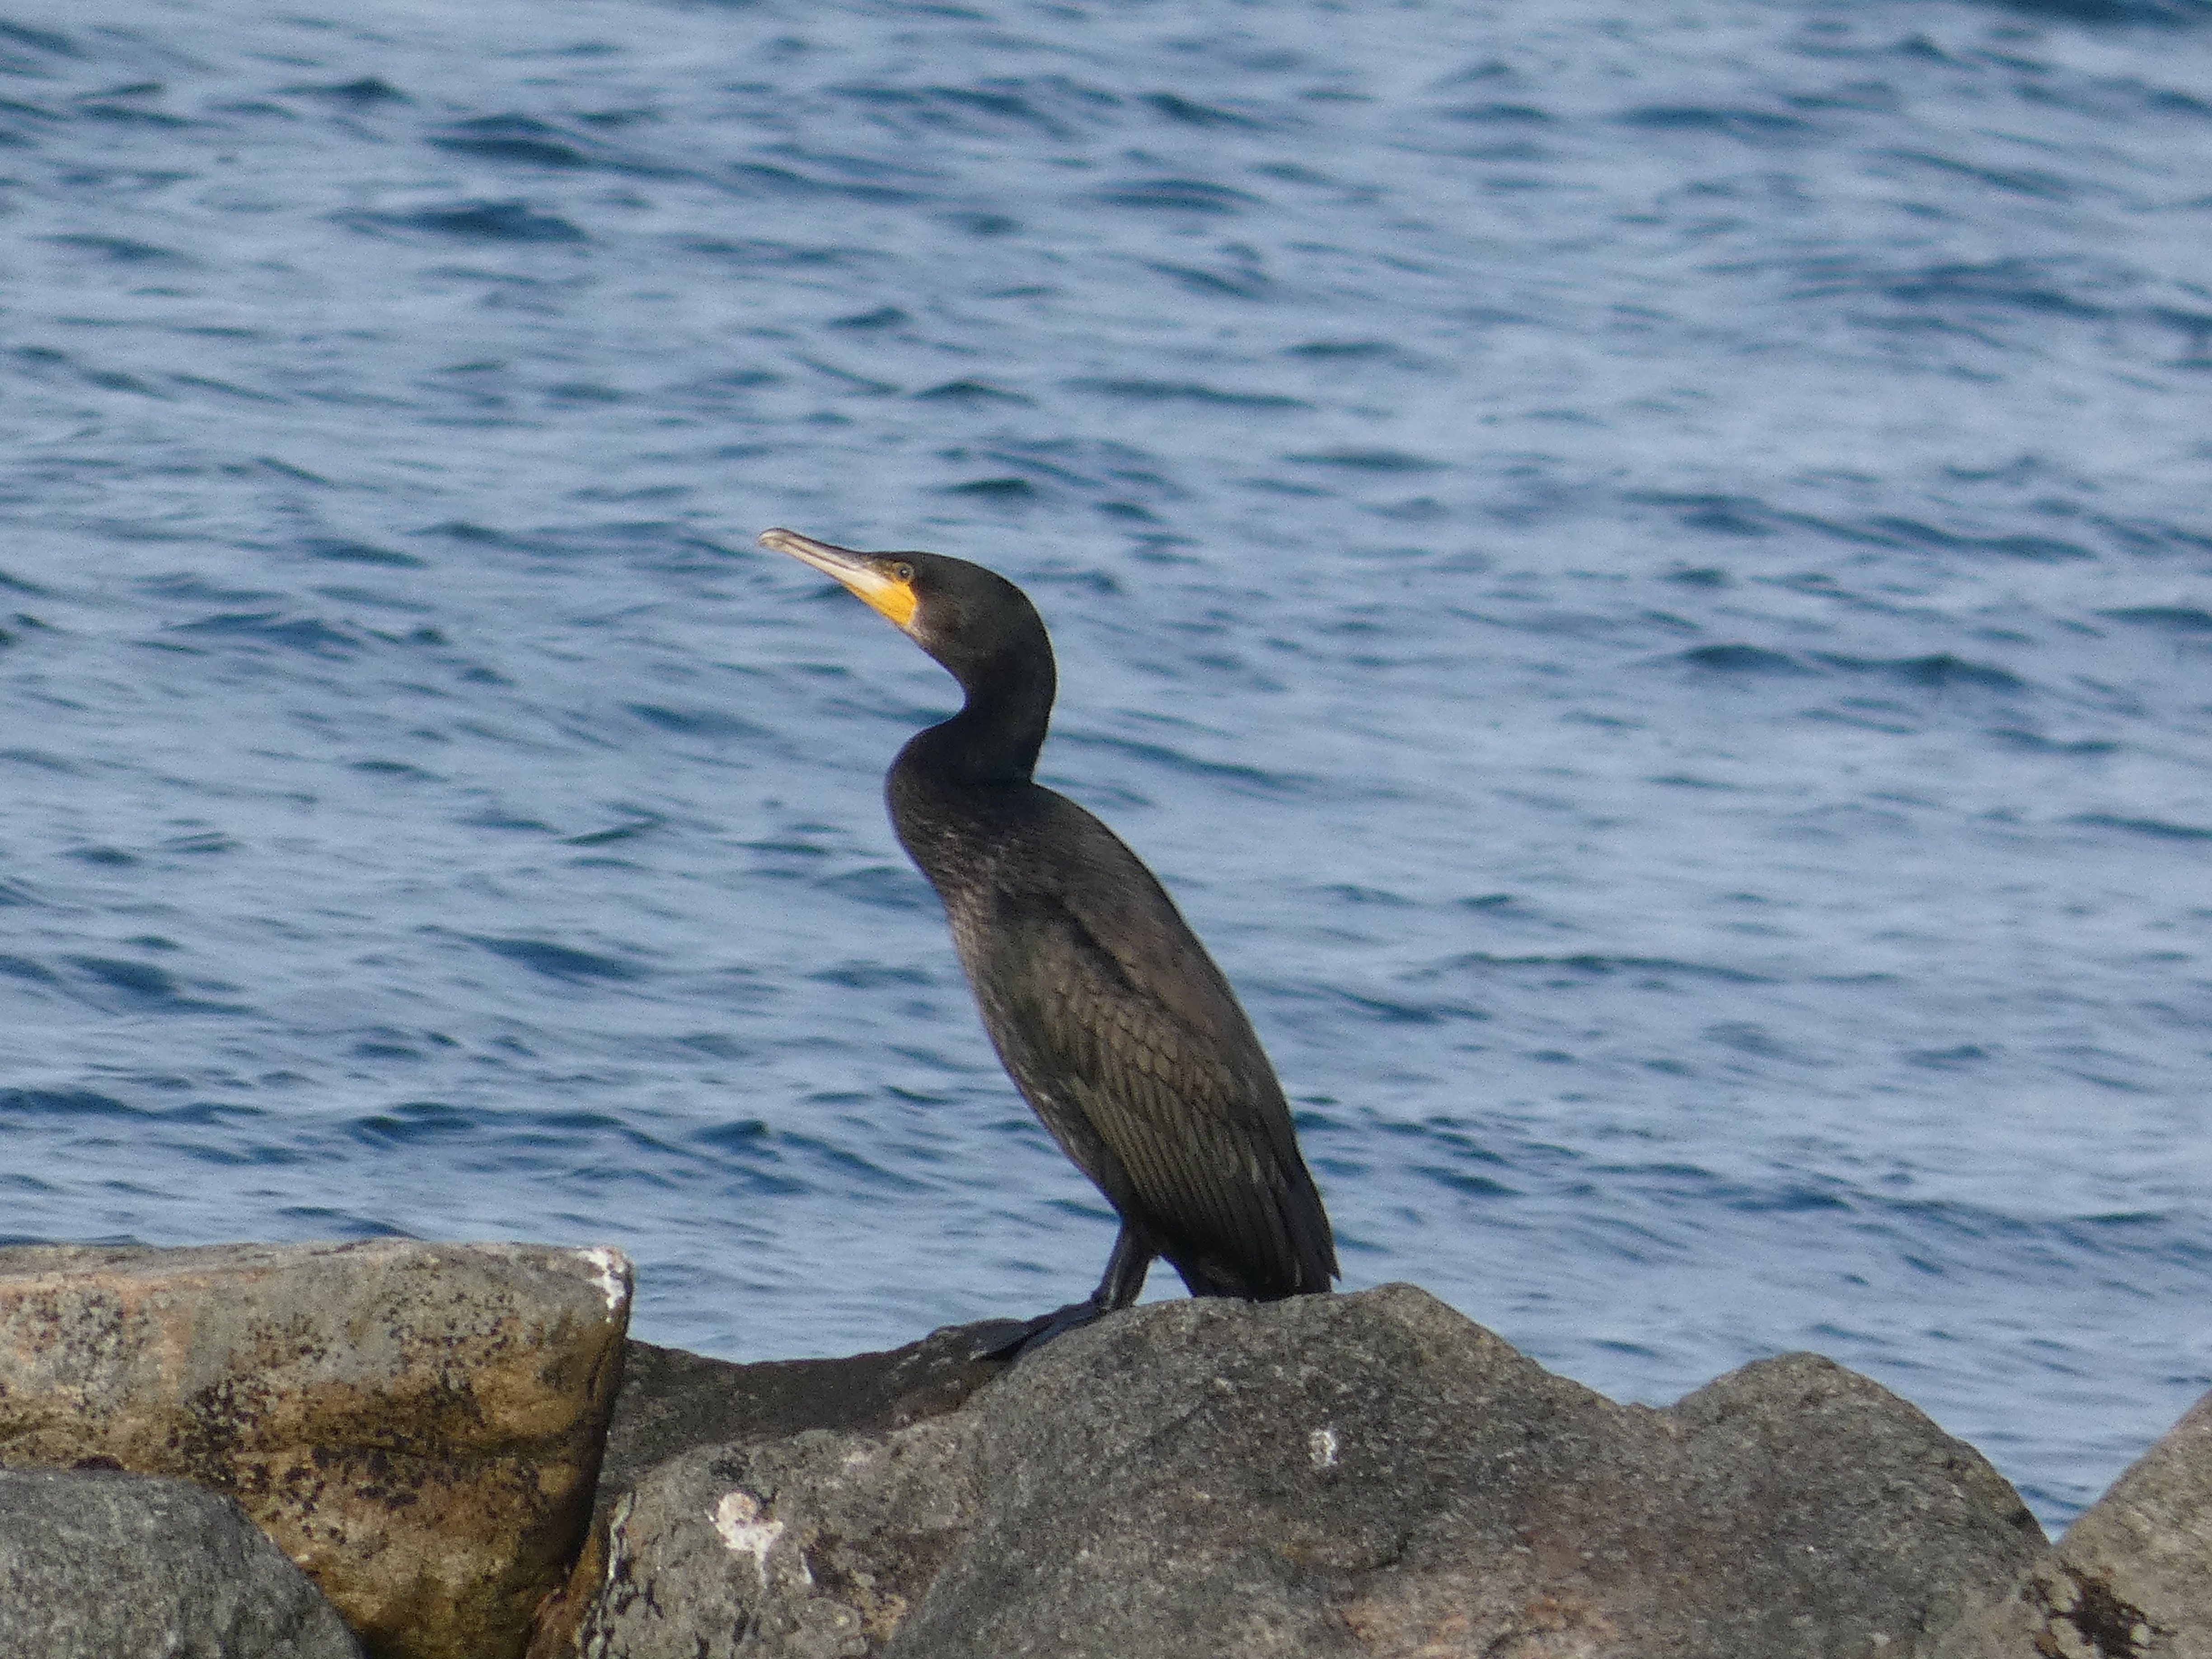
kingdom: Animalia
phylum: Chordata
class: Aves
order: Suliformes
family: Phalacrocoracidae
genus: Phalacrocorax
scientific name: Phalacrocorax carbo
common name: Skarv
